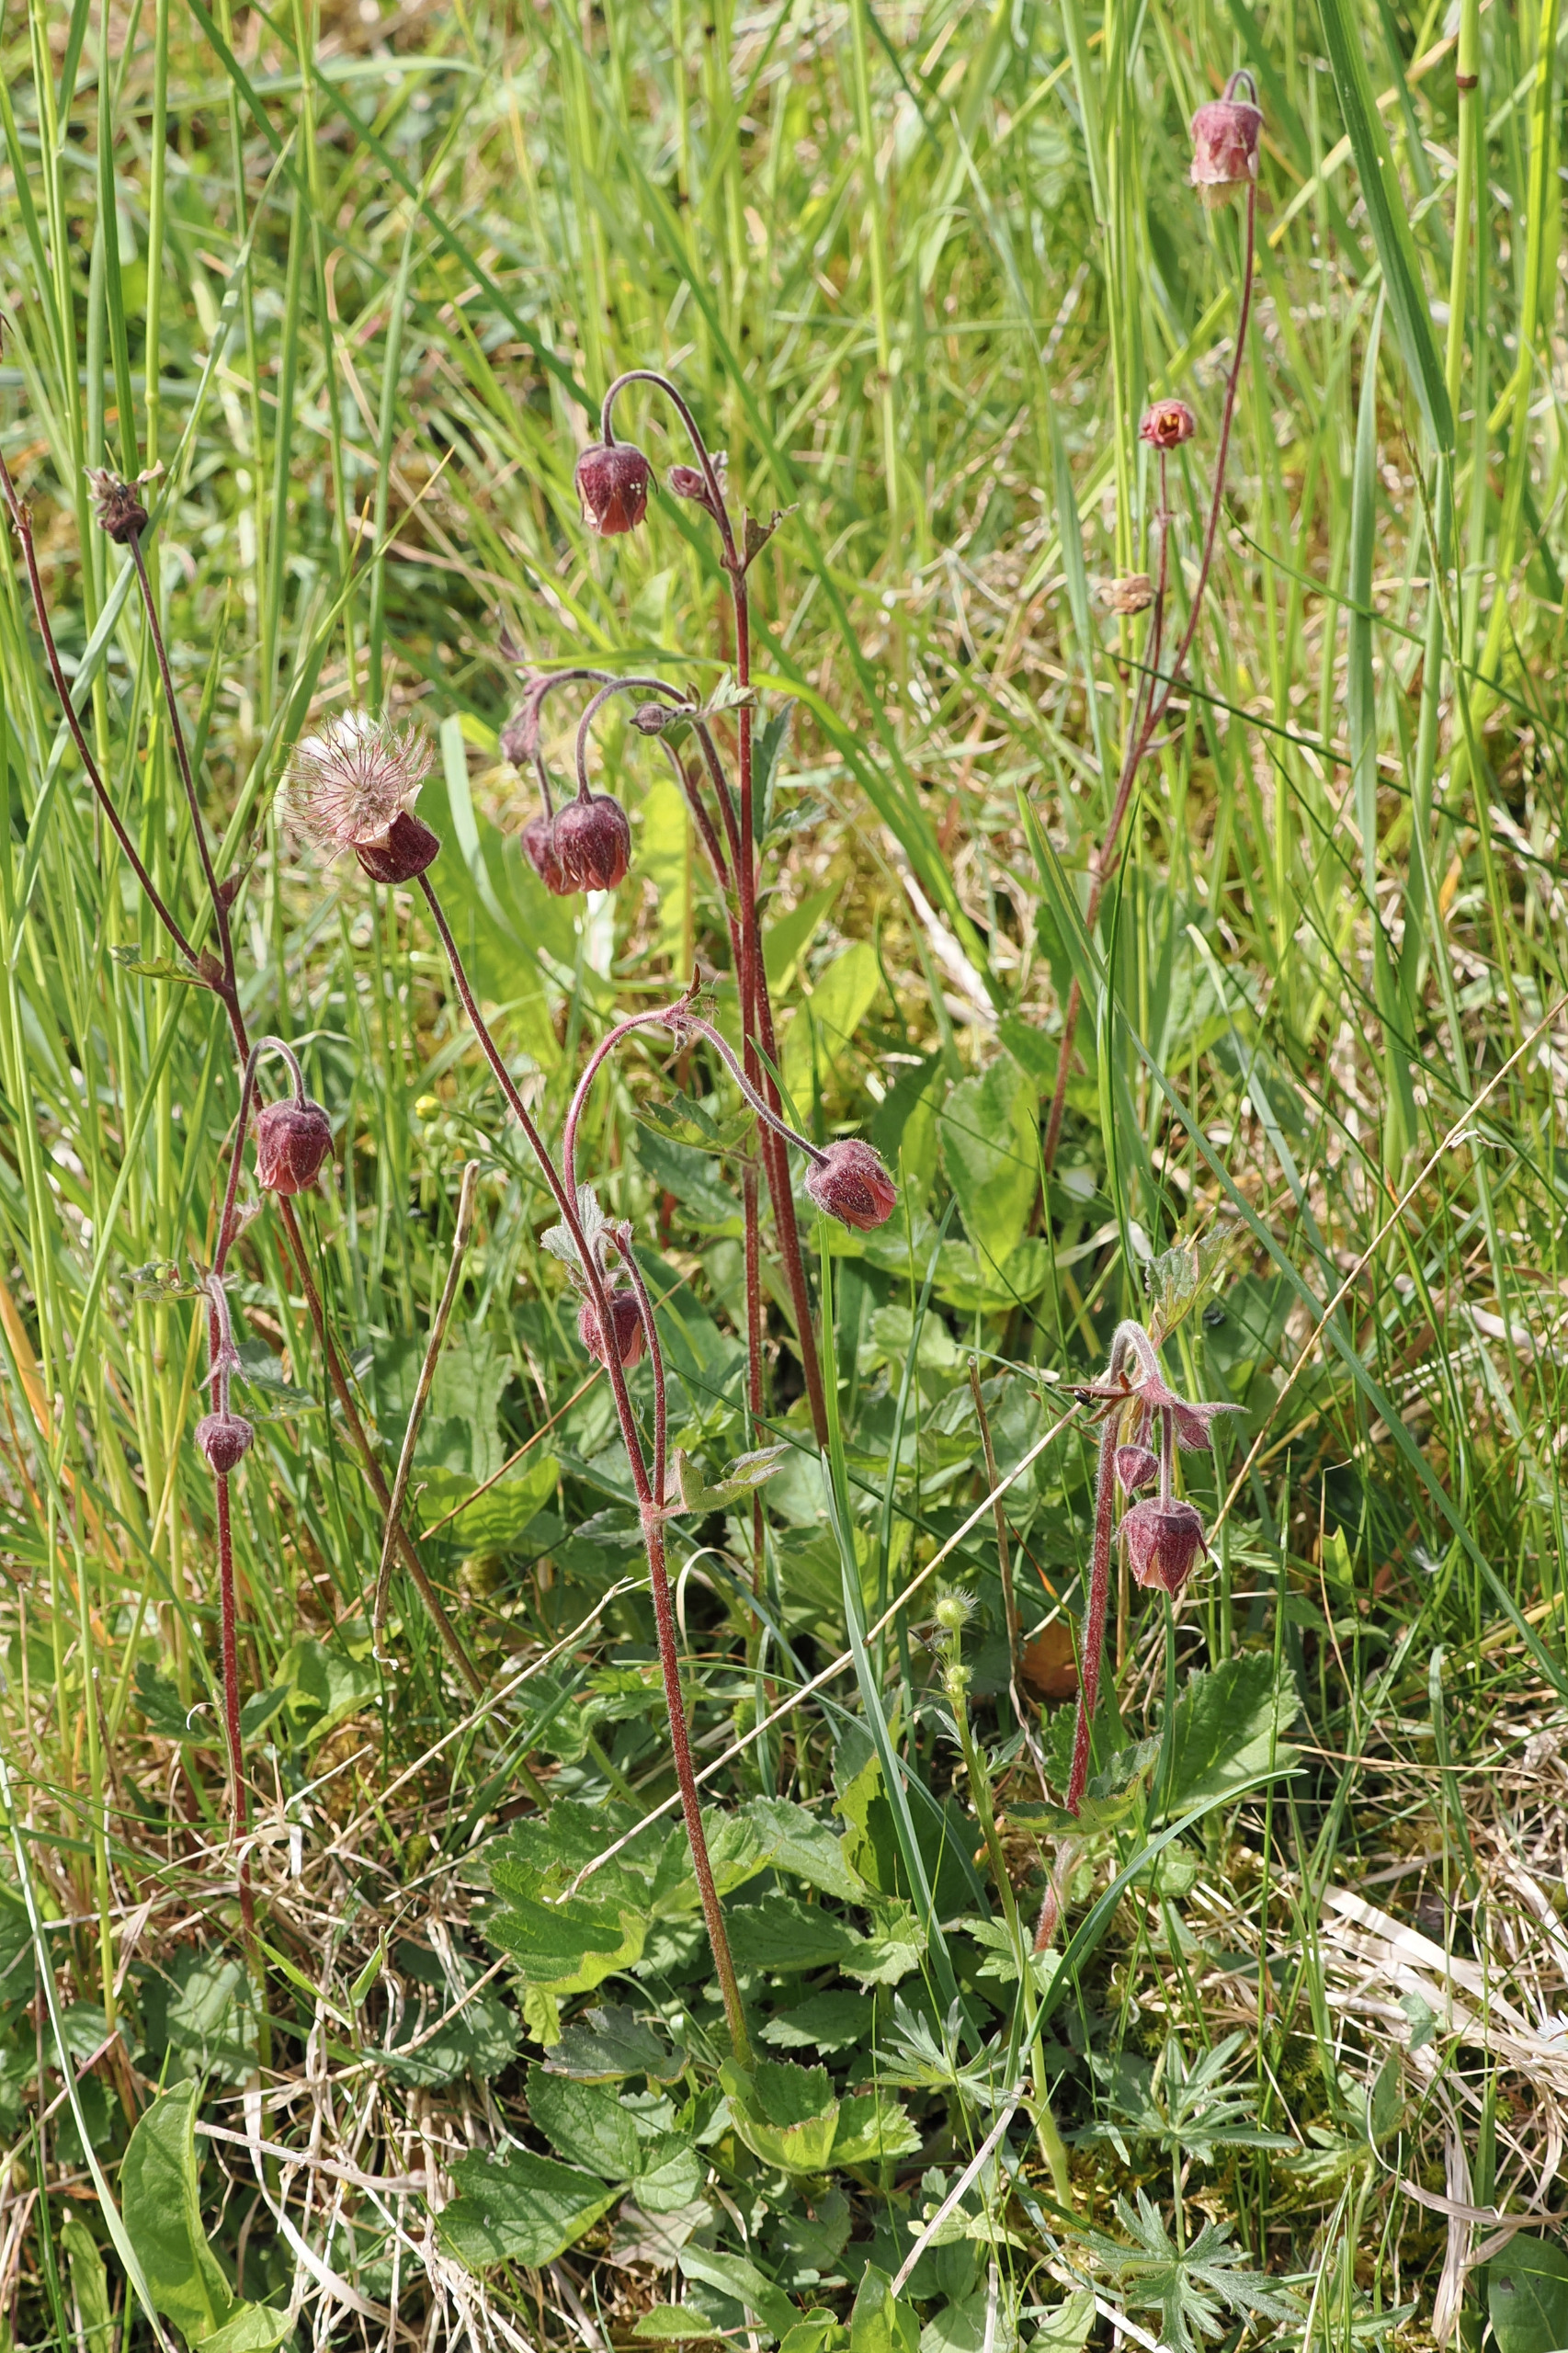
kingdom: Plantae
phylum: Tracheophyta
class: Magnoliopsida
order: Rosales
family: Rosaceae
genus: Geum
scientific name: Geum rivale
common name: Eng-nellikerod
